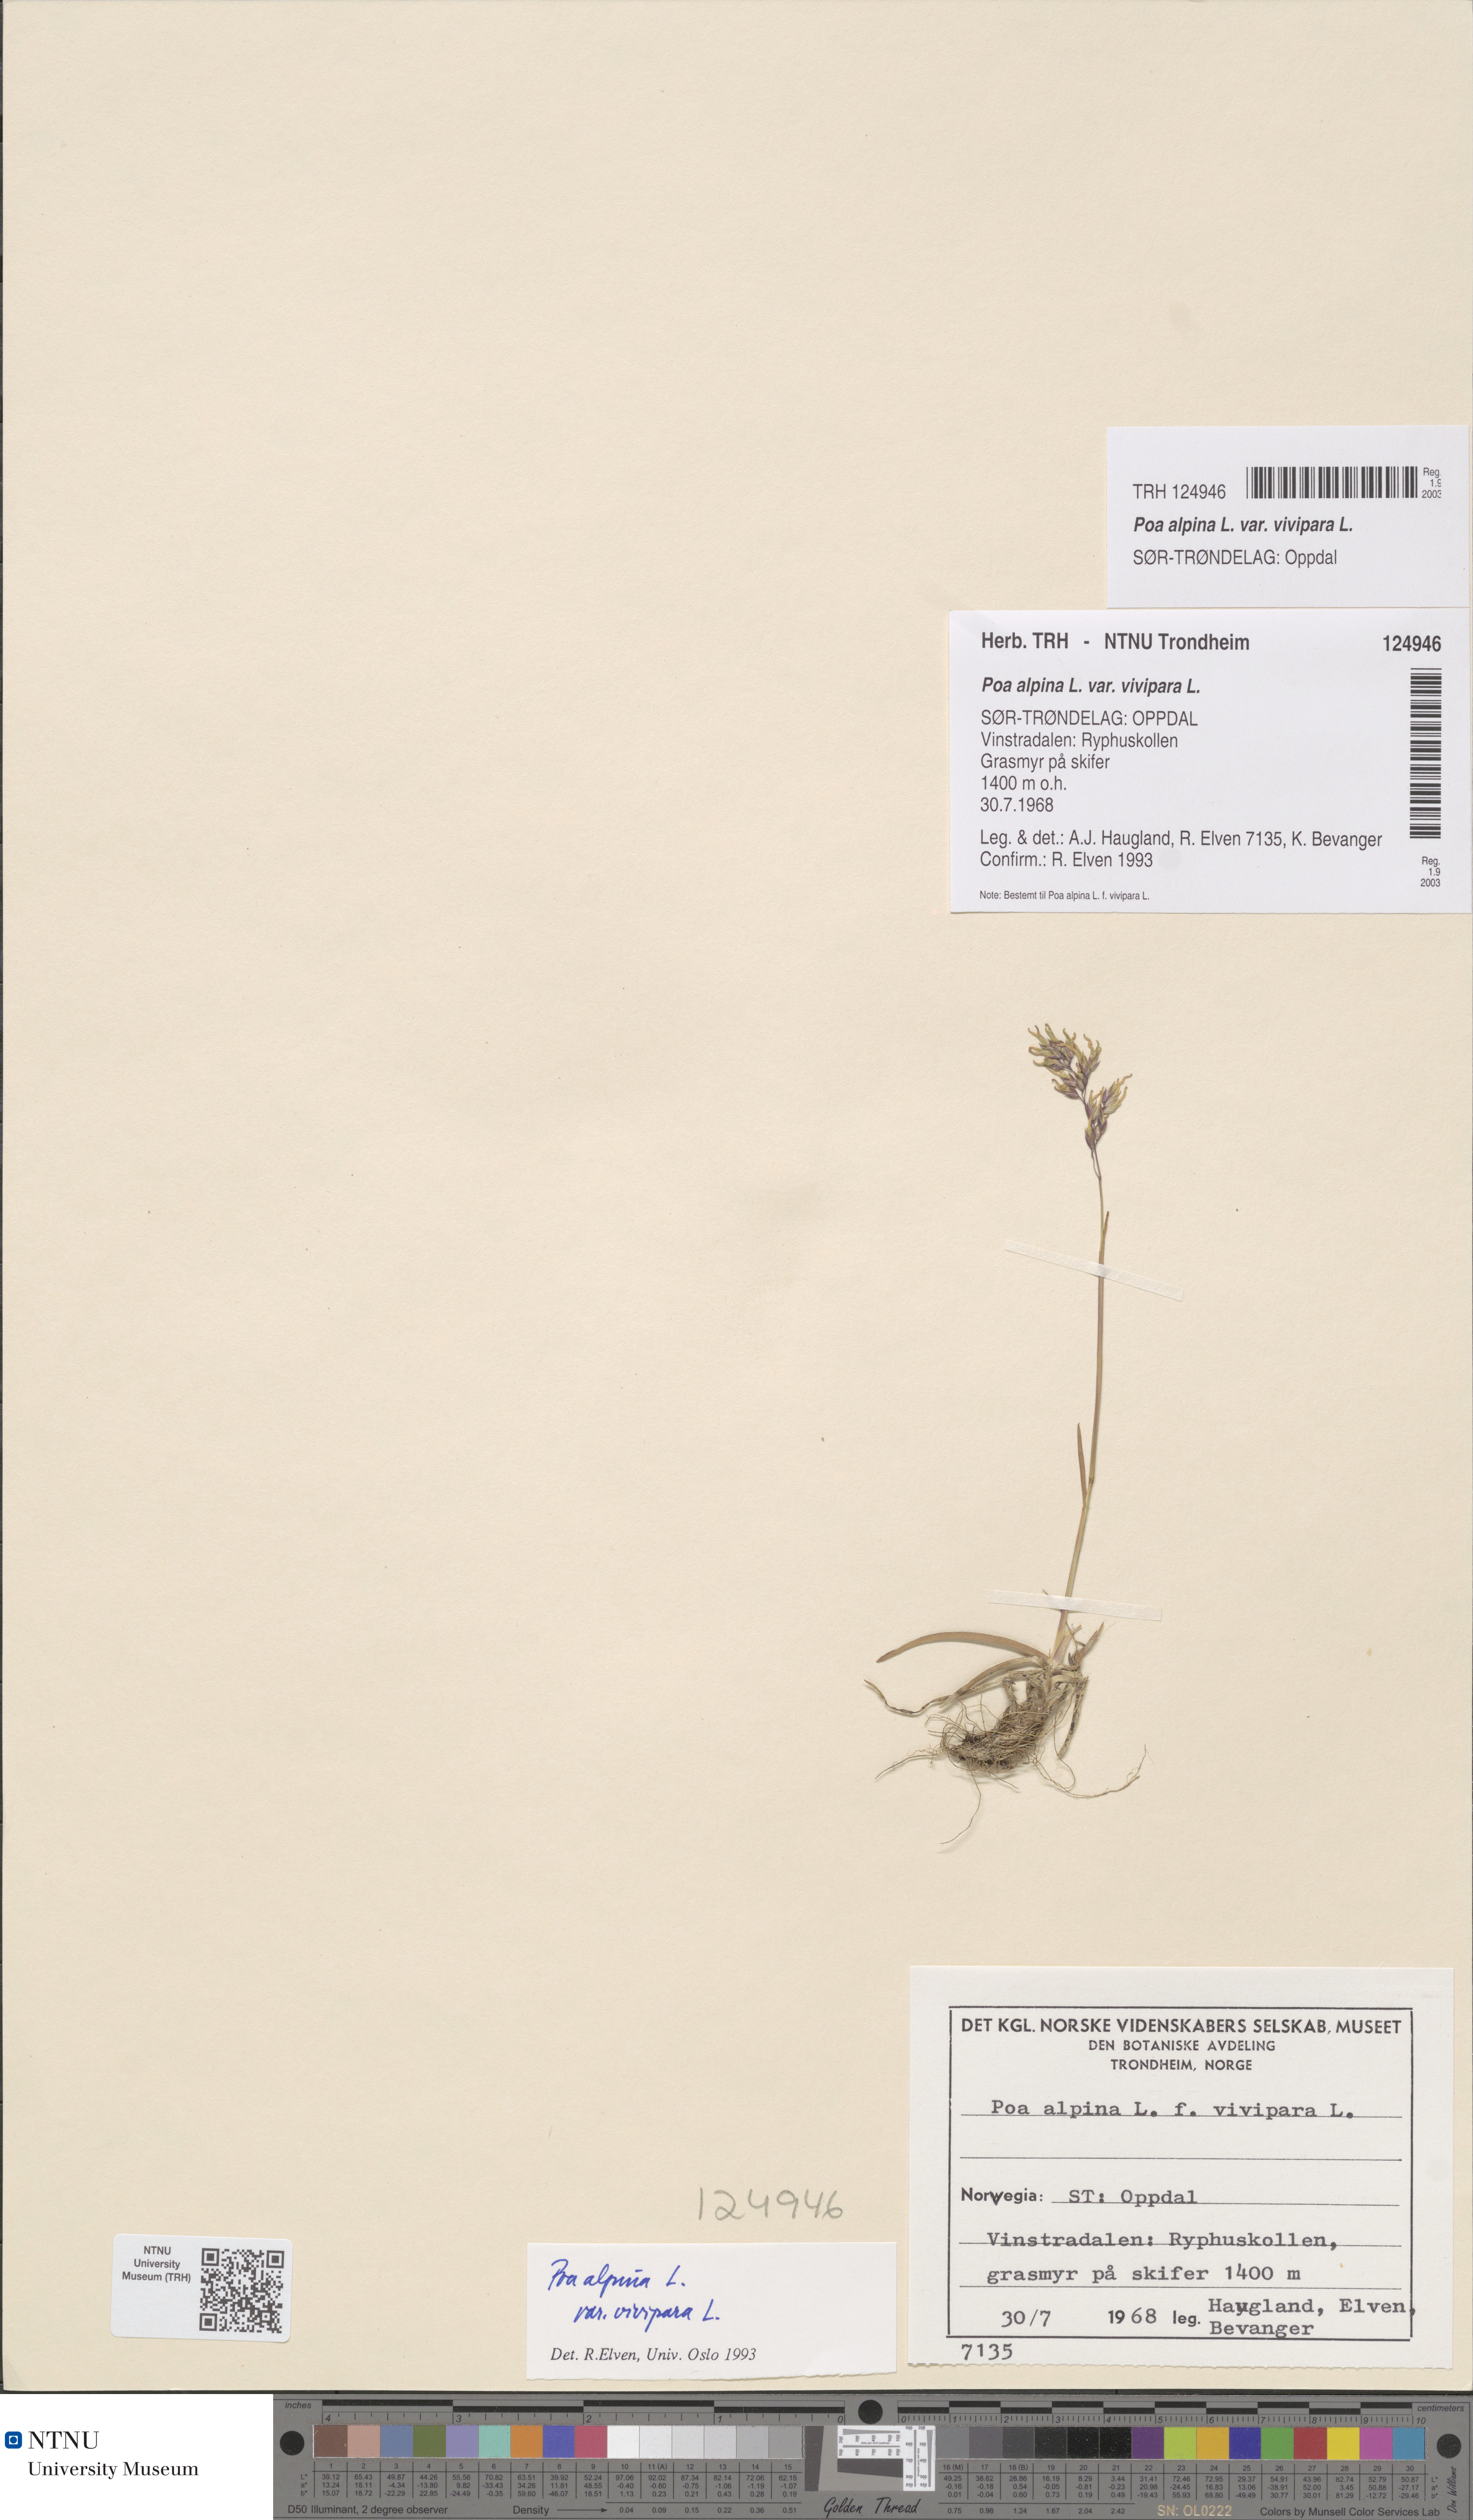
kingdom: Plantae
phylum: Tracheophyta
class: Liliopsida
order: Poales
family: Poaceae
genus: Poa
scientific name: Poa alpina
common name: Alpine bluegrass
